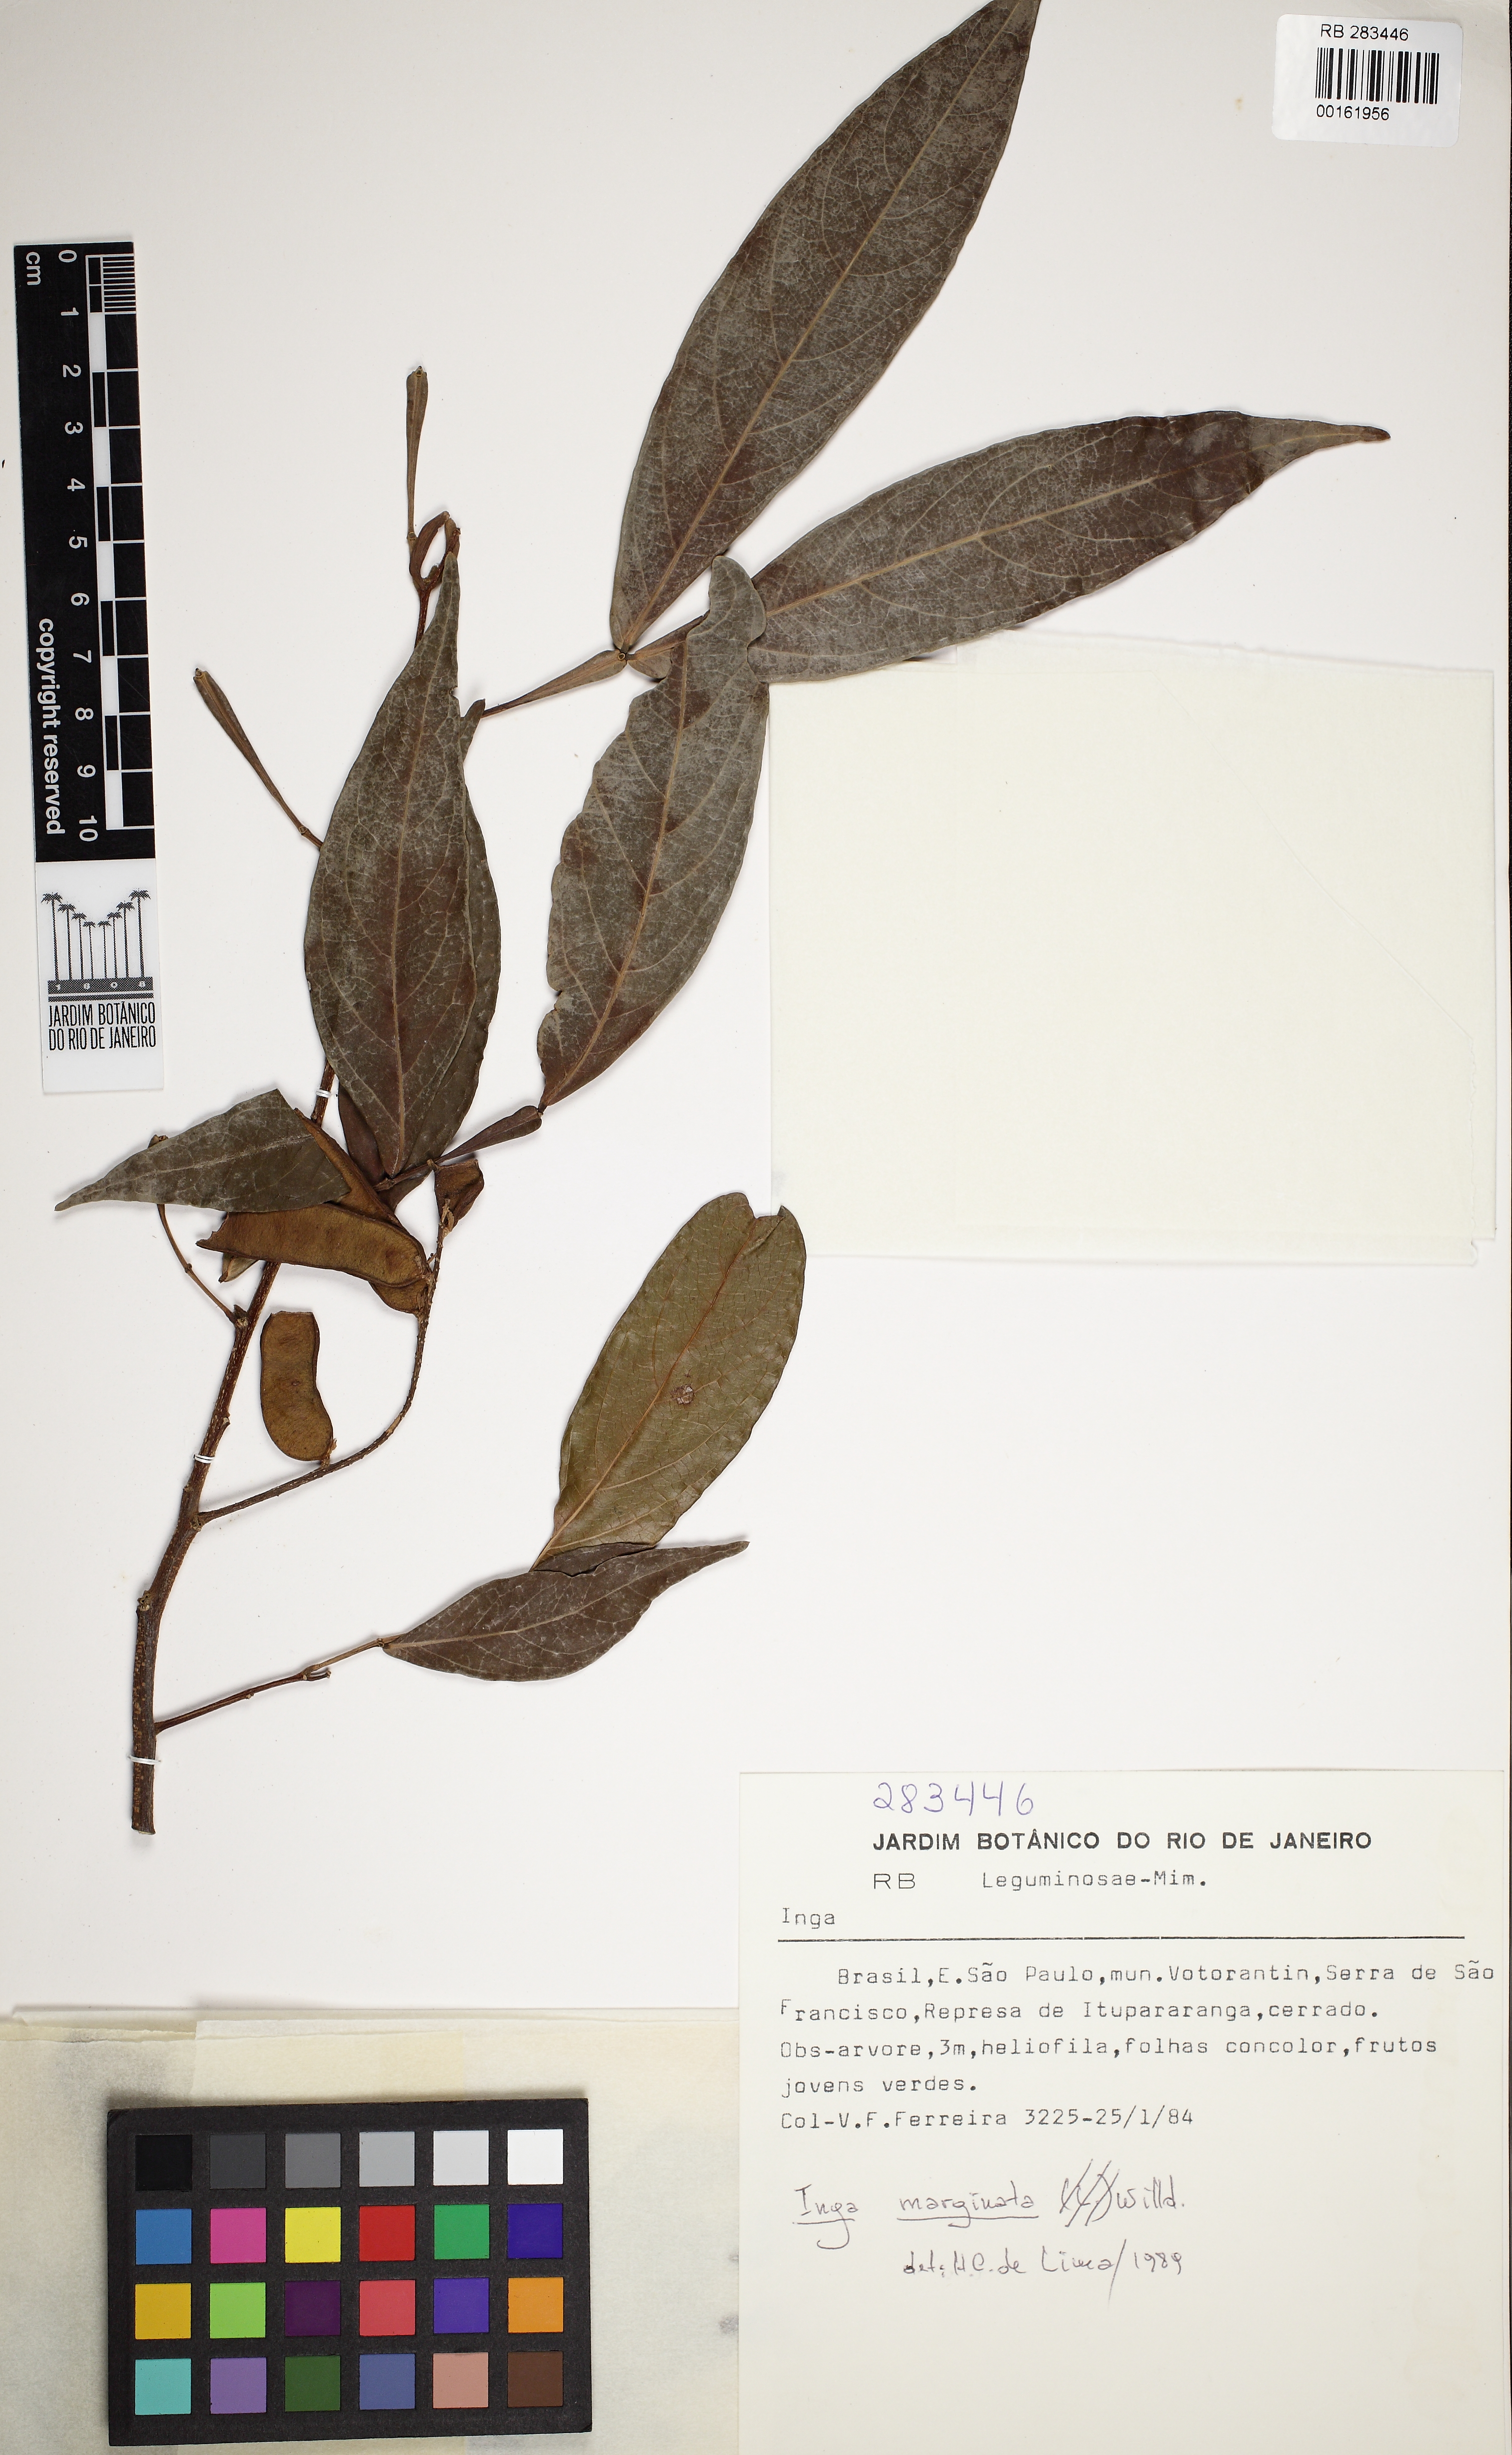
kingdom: Plantae
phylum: Tracheophyta
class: Magnoliopsida
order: Fabales
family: Fabaceae
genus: Inga
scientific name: Inga marginata
